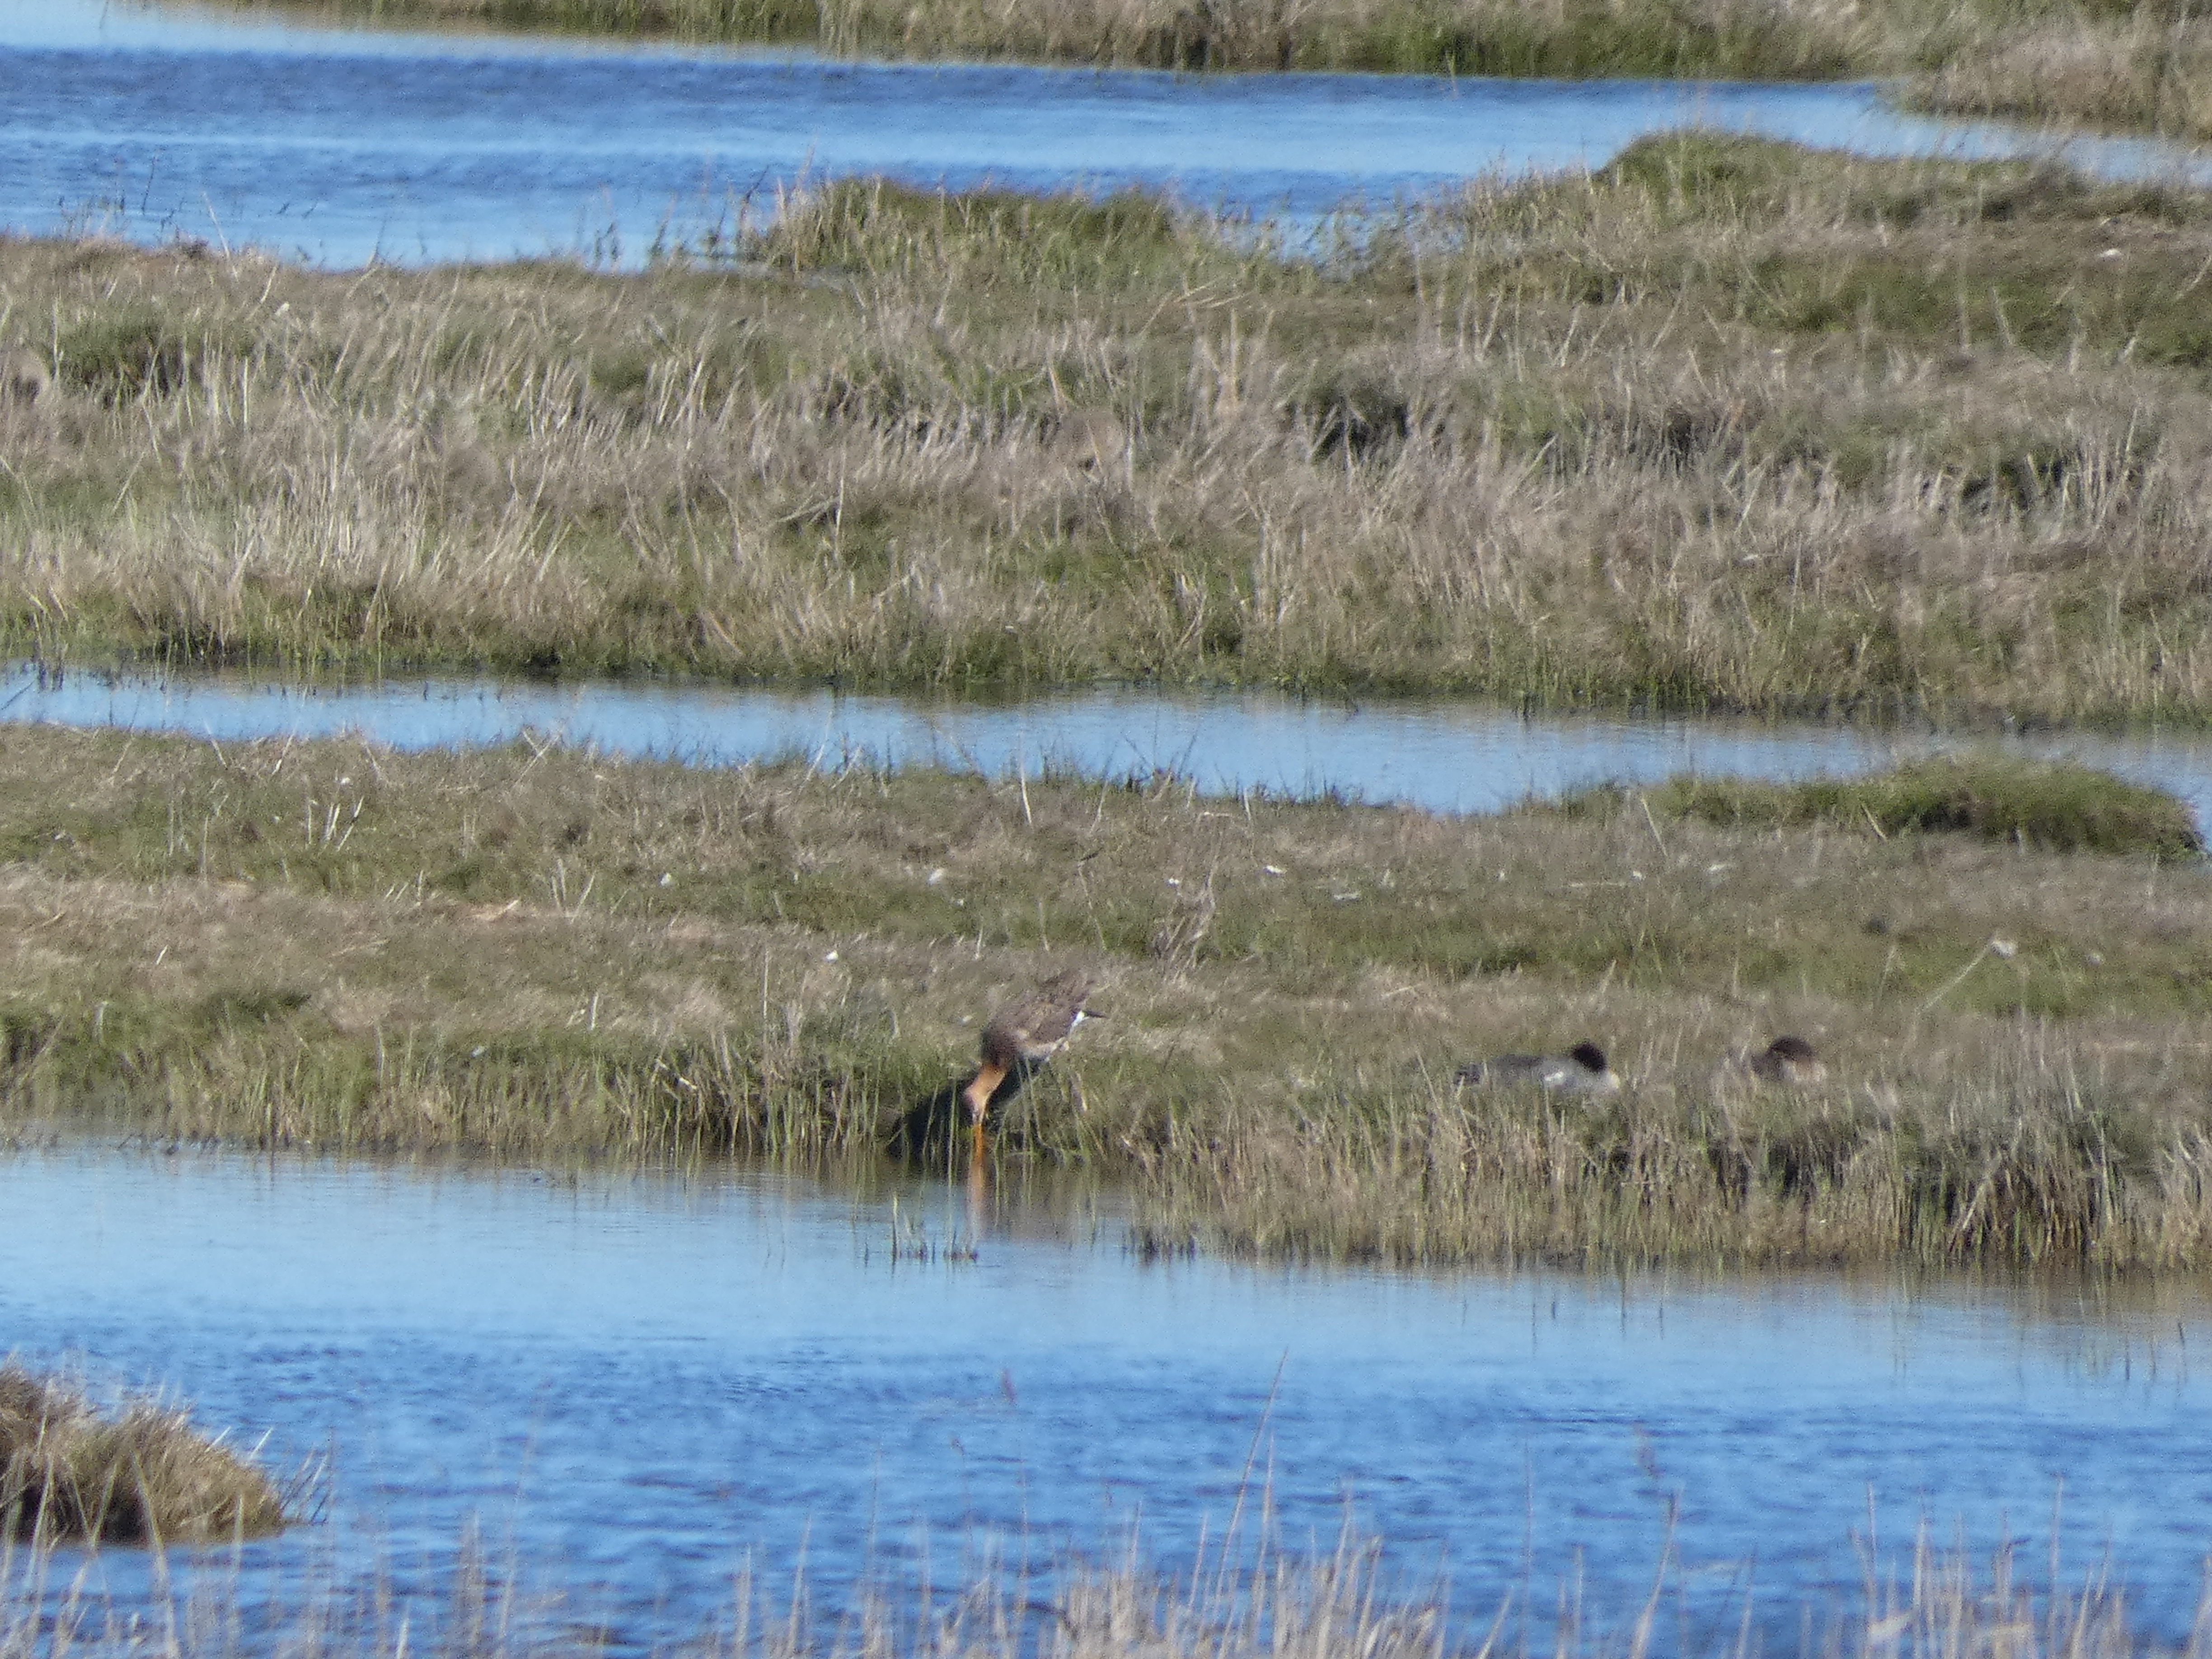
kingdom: Animalia
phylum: Chordata
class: Aves
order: Charadriiformes
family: Scolopacidae
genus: Limosa
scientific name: Limosa limosa
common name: Stor kobbersneppe
